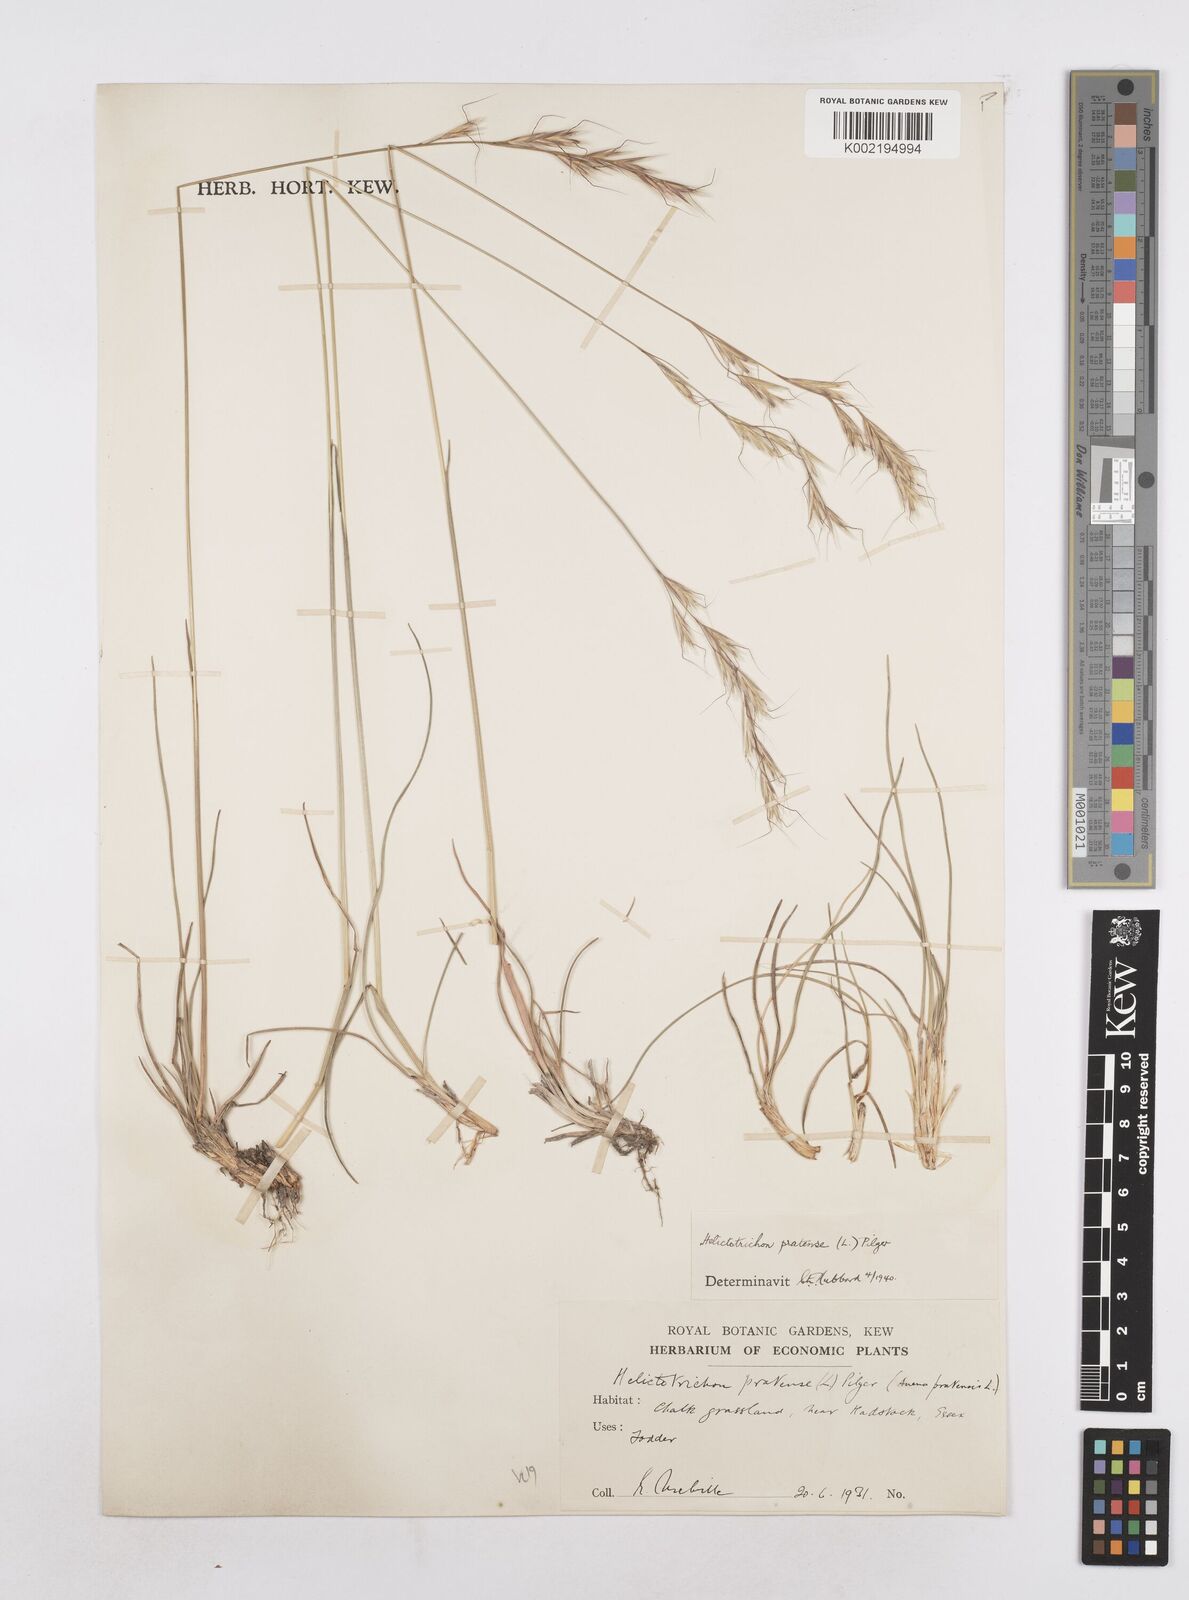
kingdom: Plantae
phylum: Tracheophyta
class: Liliopsida
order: Poales
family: Poaceae
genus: Helictochloa
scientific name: Helictochloa pratensis
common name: Meadow oat grass
